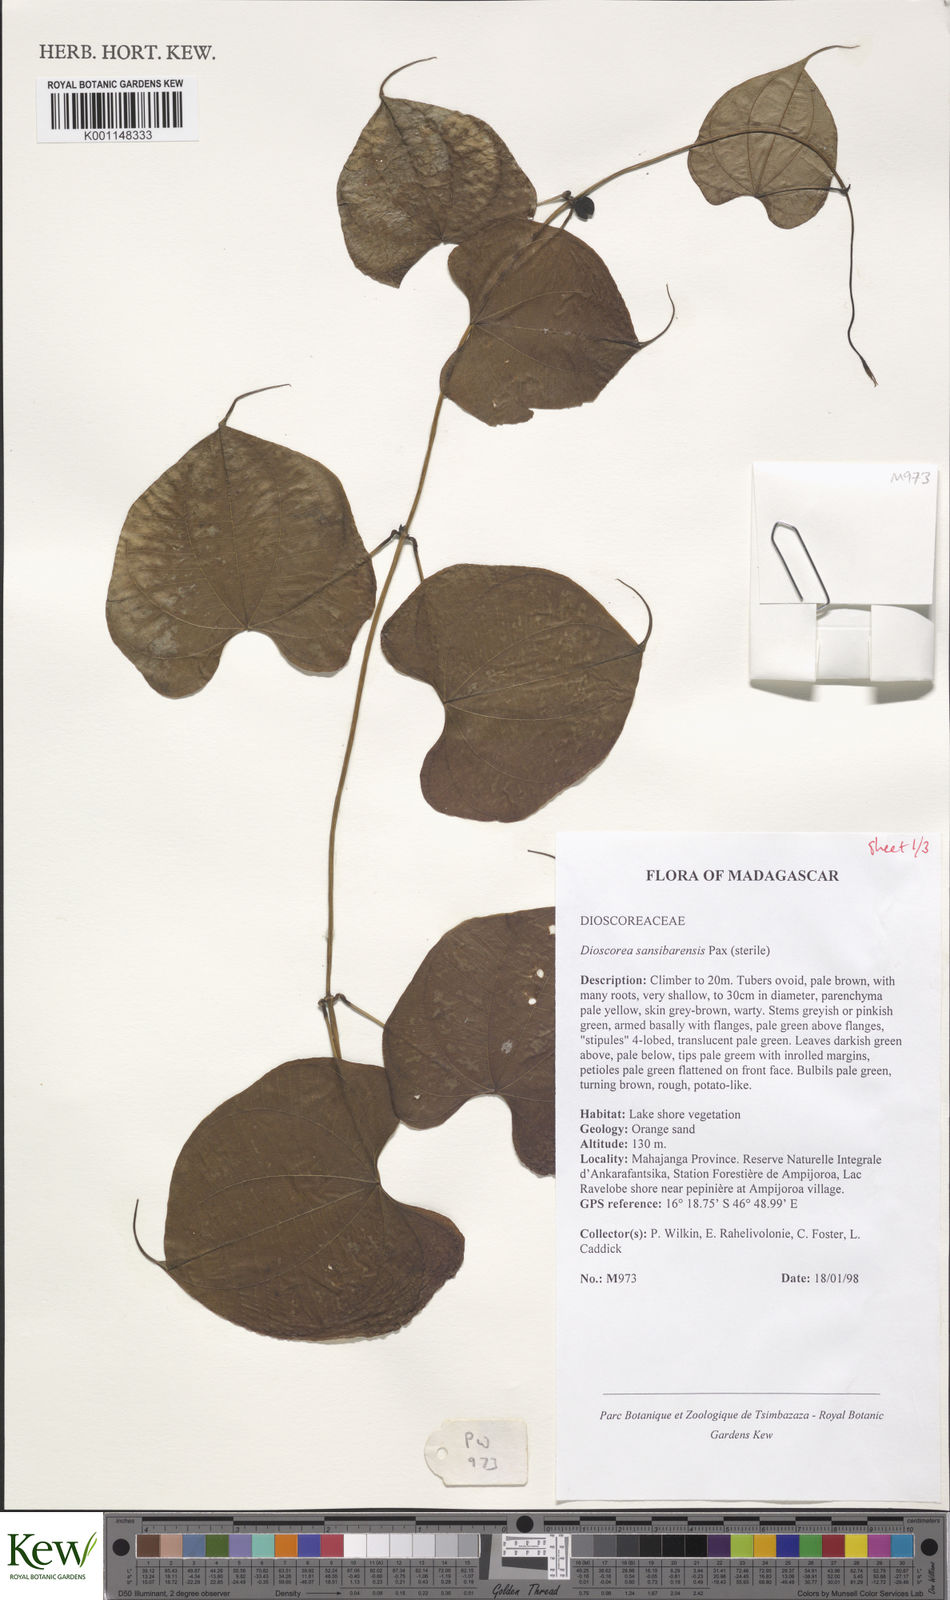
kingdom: Plantae
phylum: Tracheophyta
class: Liliopsida
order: Dioscoreales
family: Dioscoreaceae
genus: Dioscorea
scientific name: Dioscorea sansibarensis
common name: Zanzibar yam
